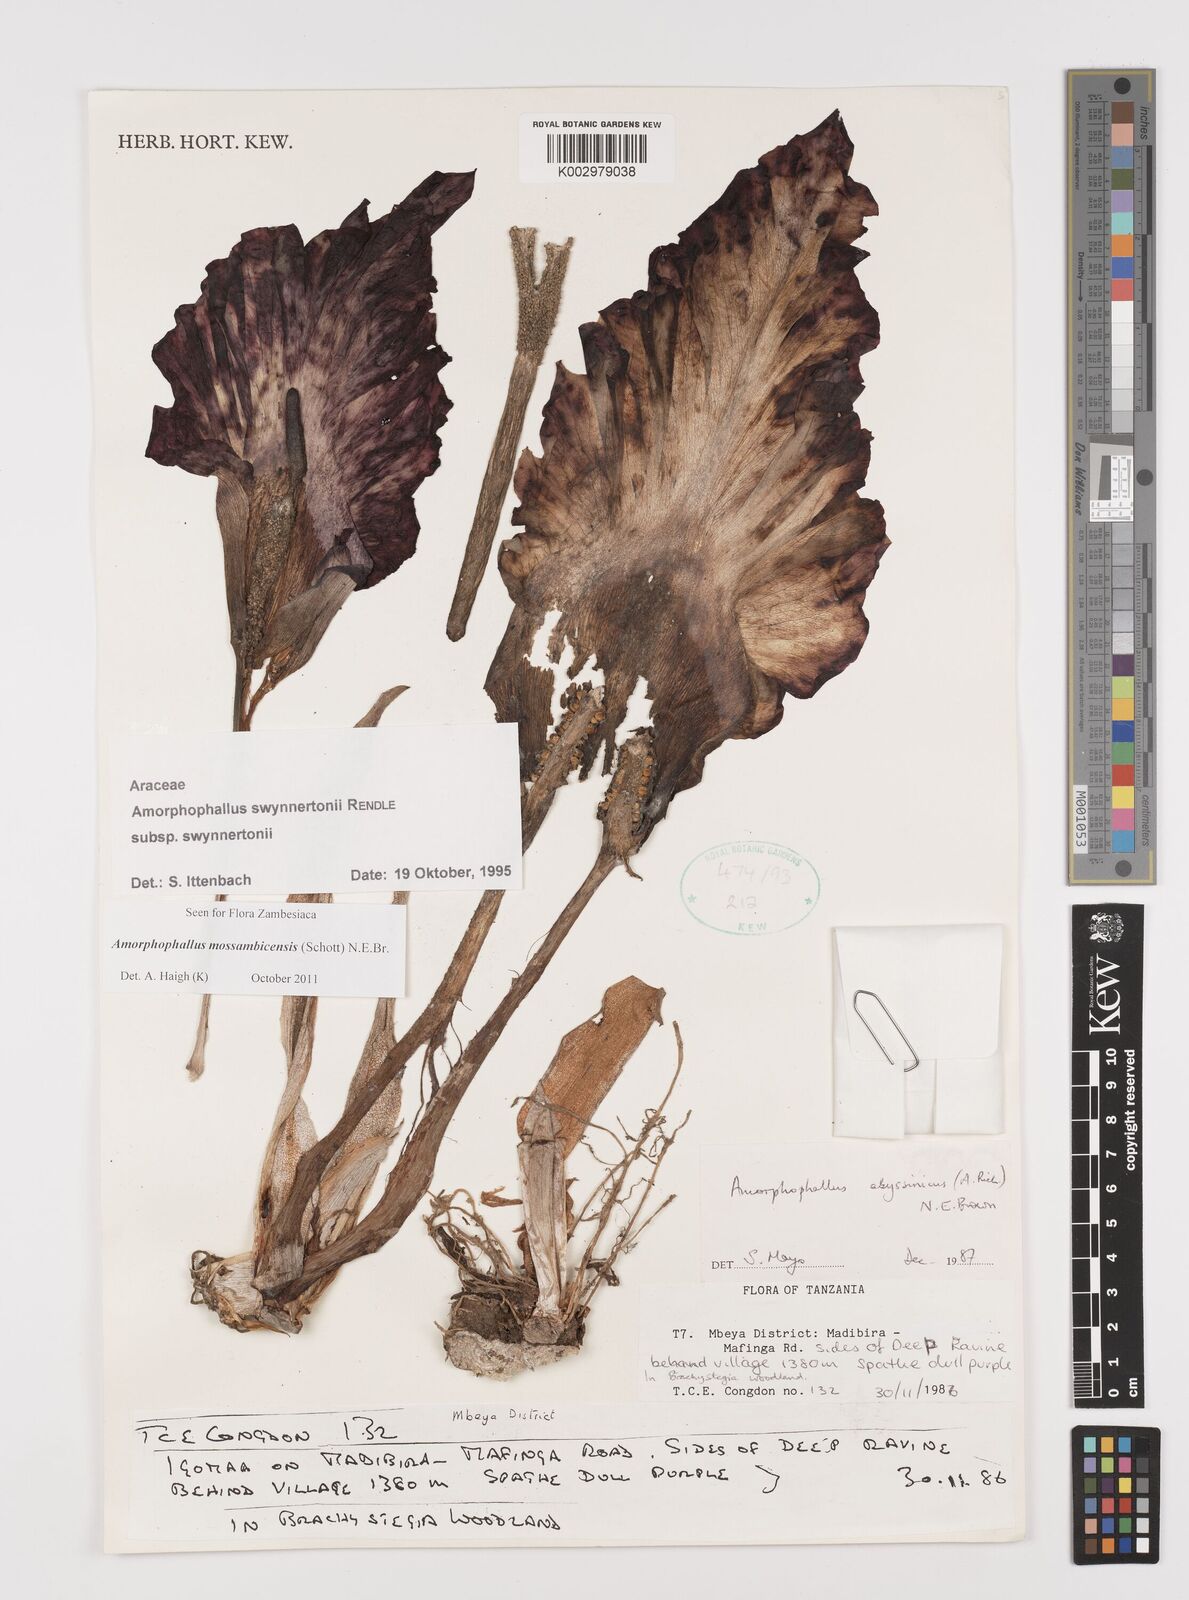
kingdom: Plantae
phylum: Tracheophyta
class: Liliopsida
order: Alismatales
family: Araceae
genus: Amorphophallus
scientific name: Amorphophallus mossambicensis
